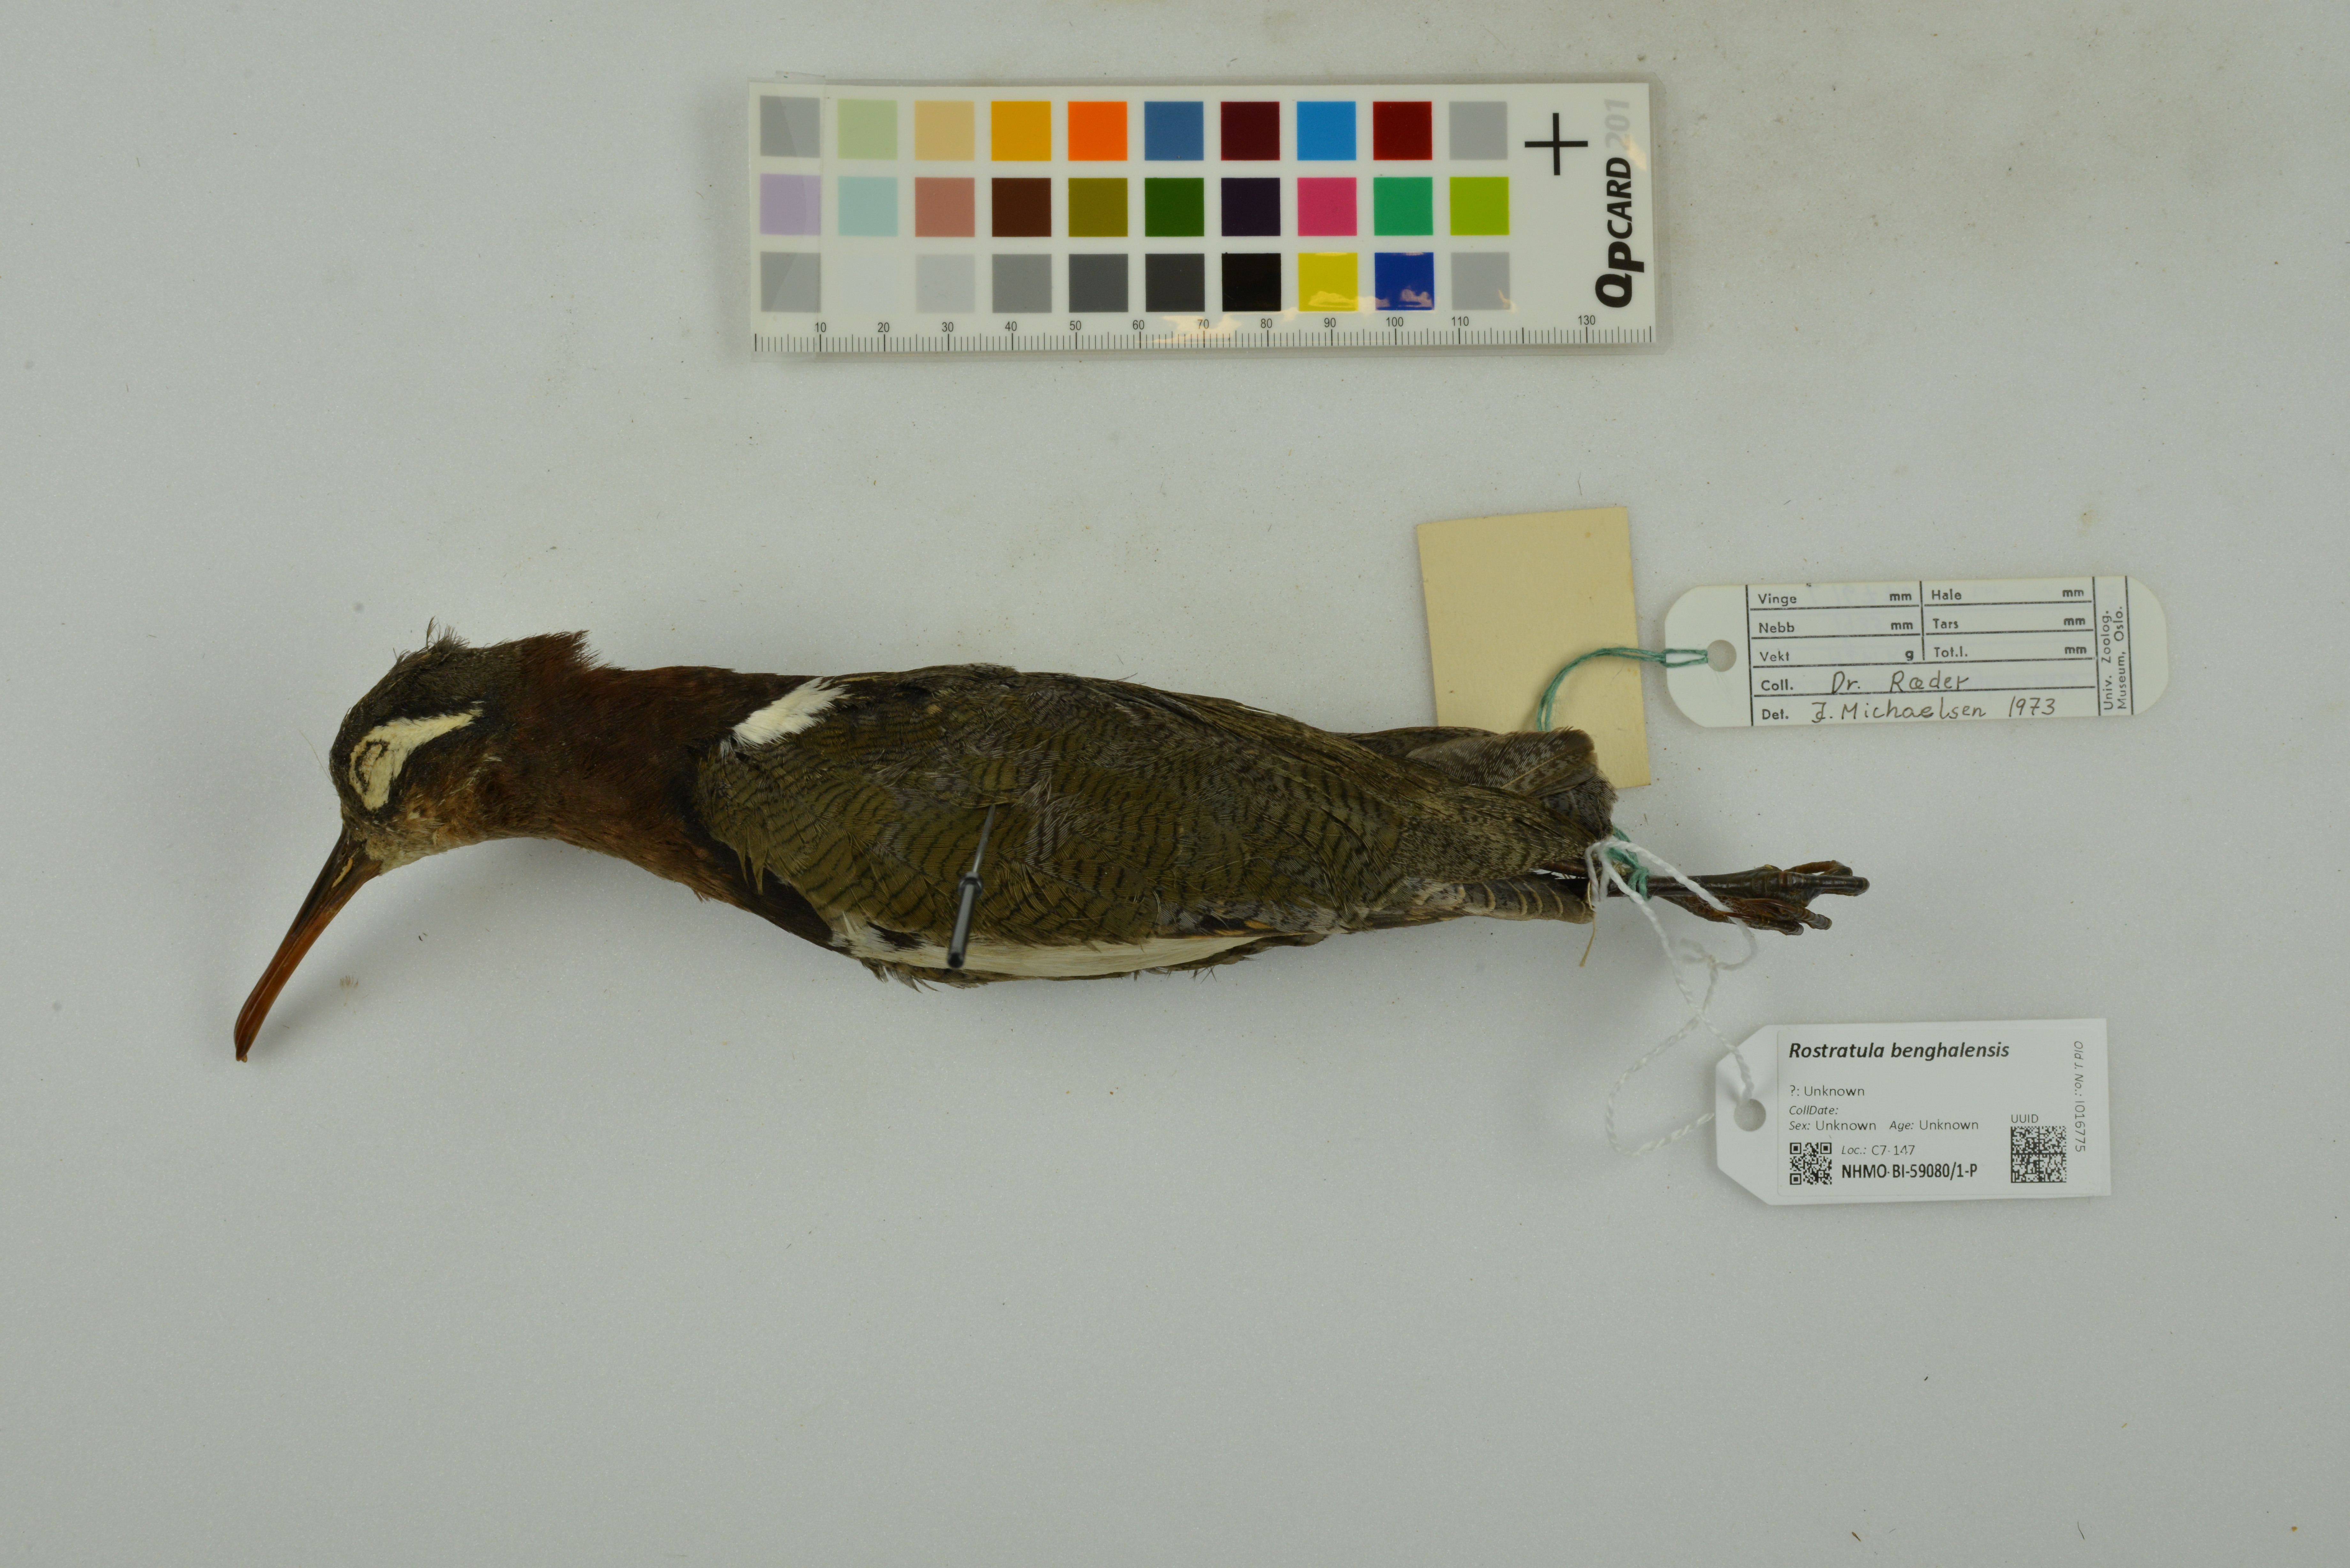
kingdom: Animalia
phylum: Chordata
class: Aves
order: Charadriiformes
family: Rostratulidae
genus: Rostratula
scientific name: Rostratula benghalensis
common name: Greater painted-snipe
